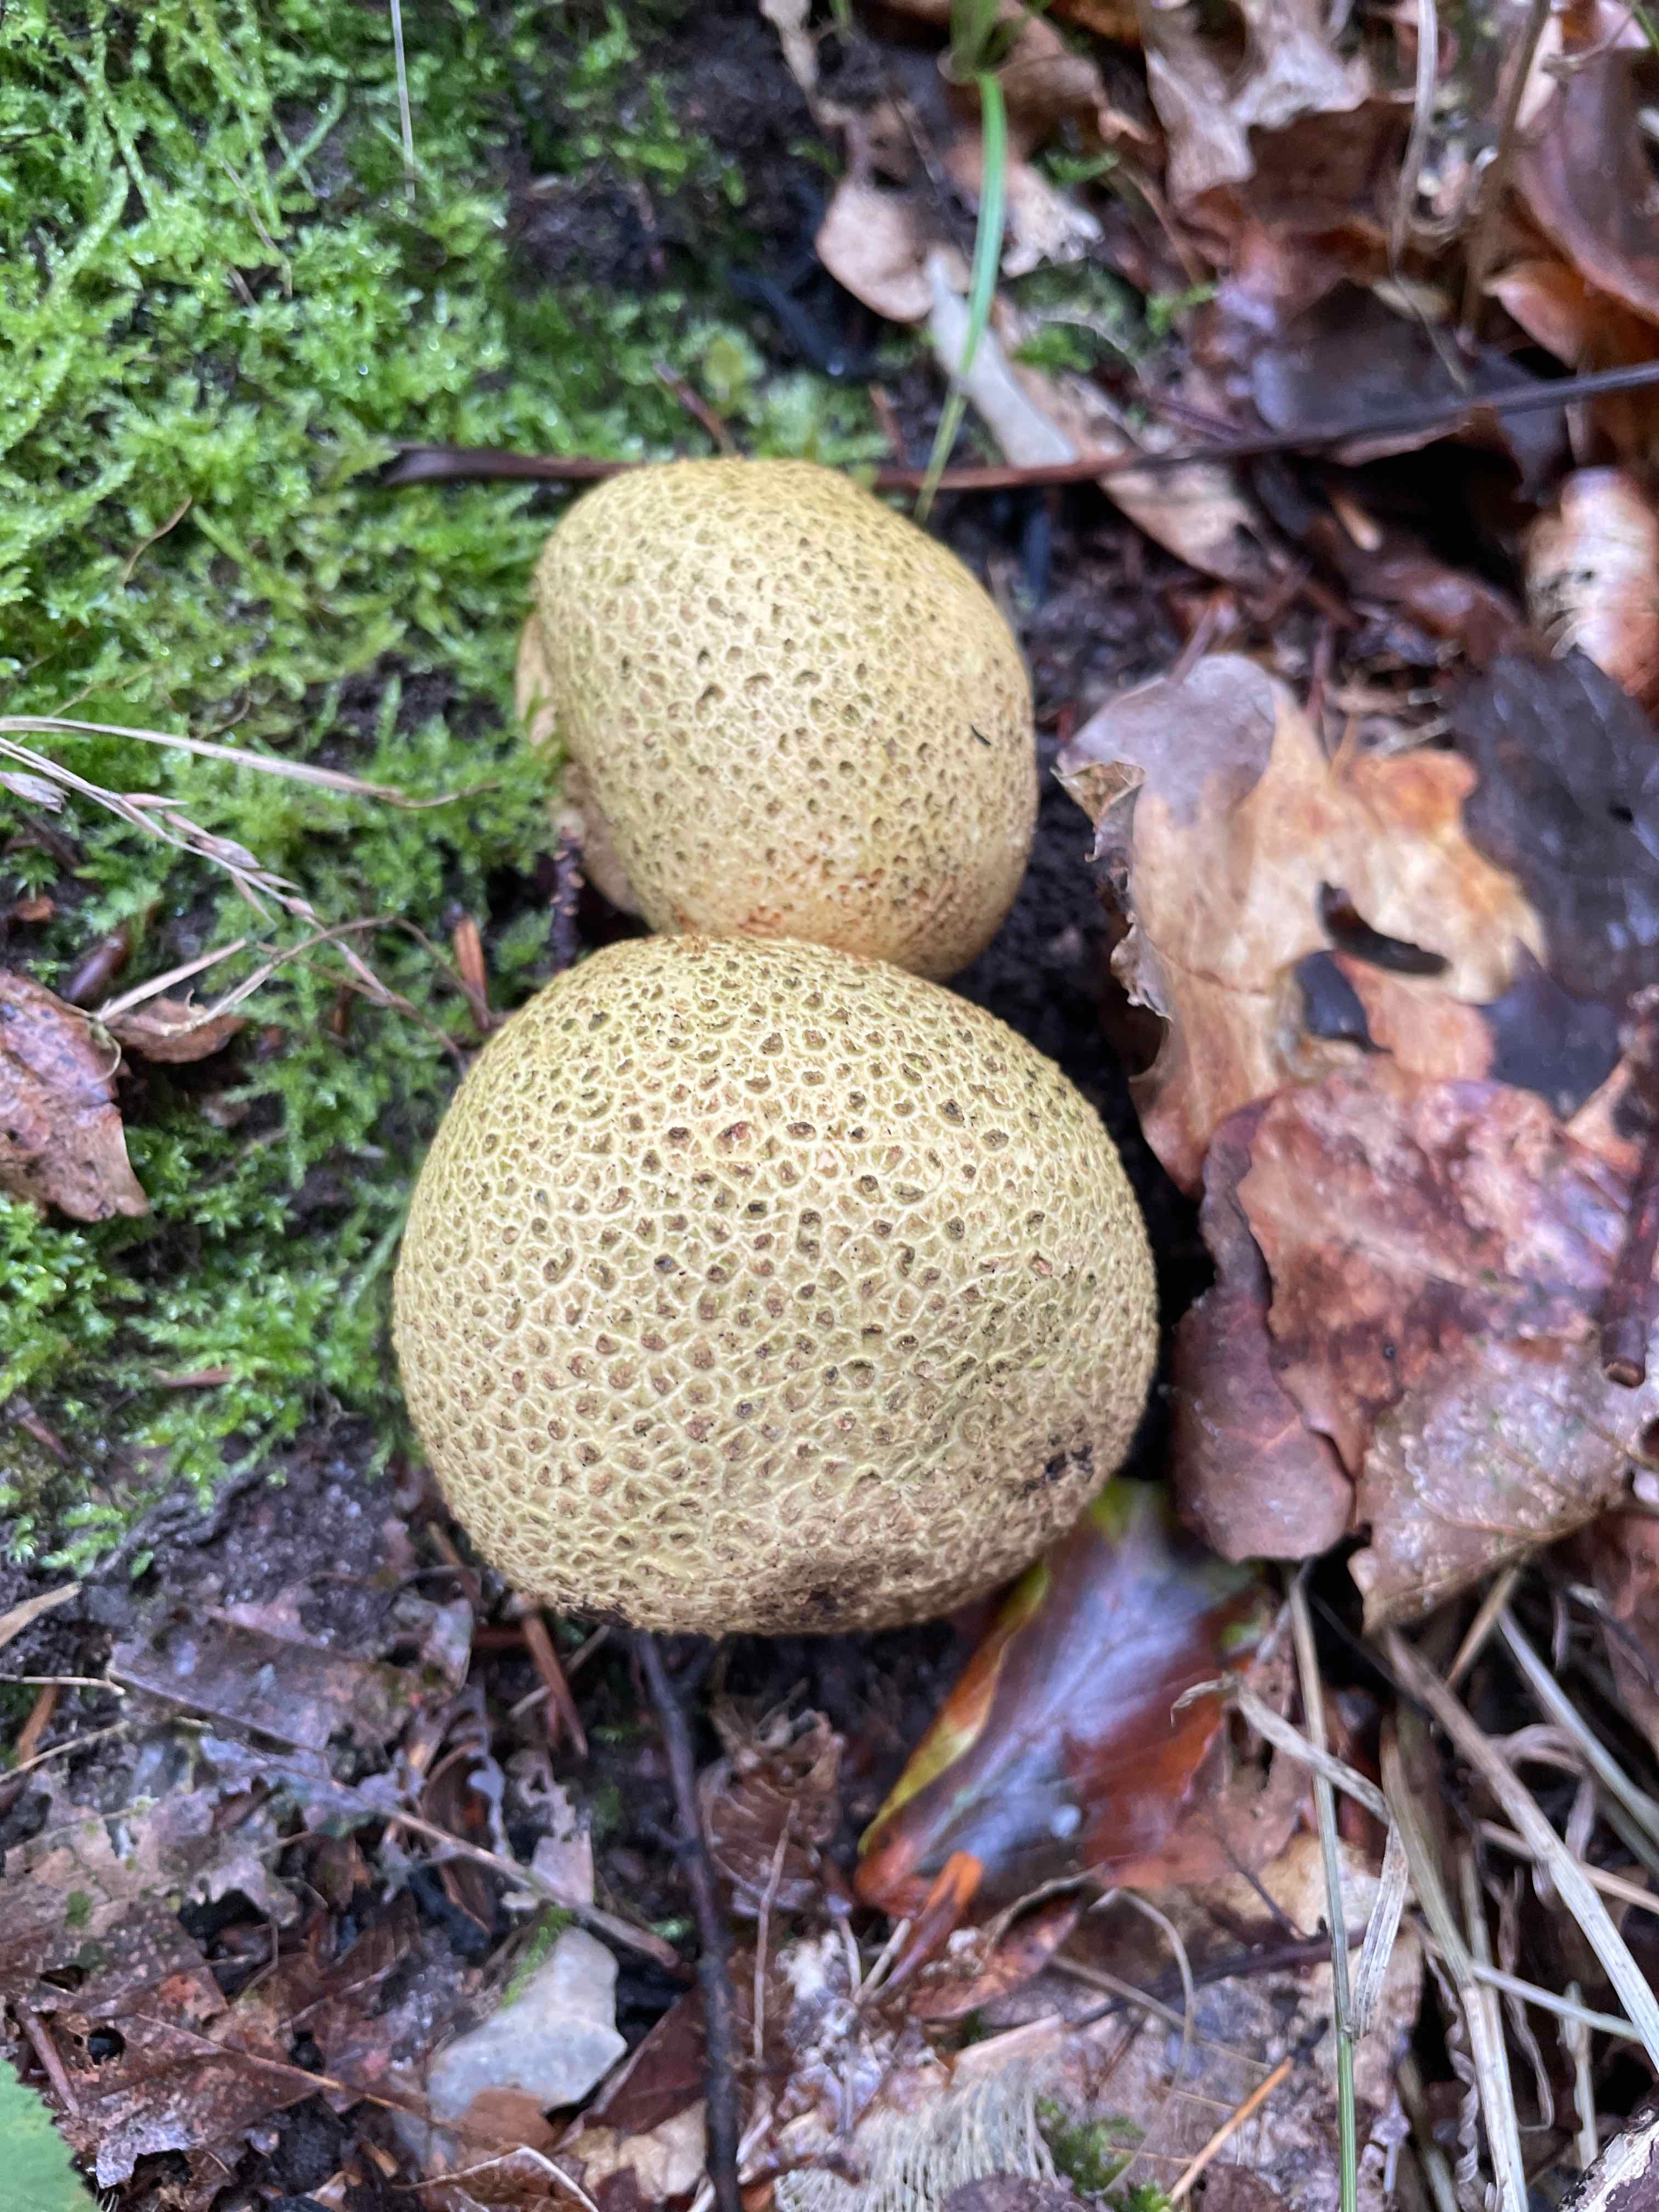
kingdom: Fungi
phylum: Basidiomycota
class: Agaricomycetes
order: Boletales
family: Sclerodermataceae
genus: Scleroderma
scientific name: Scleroderma citrinum
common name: almindelig bruskbold
